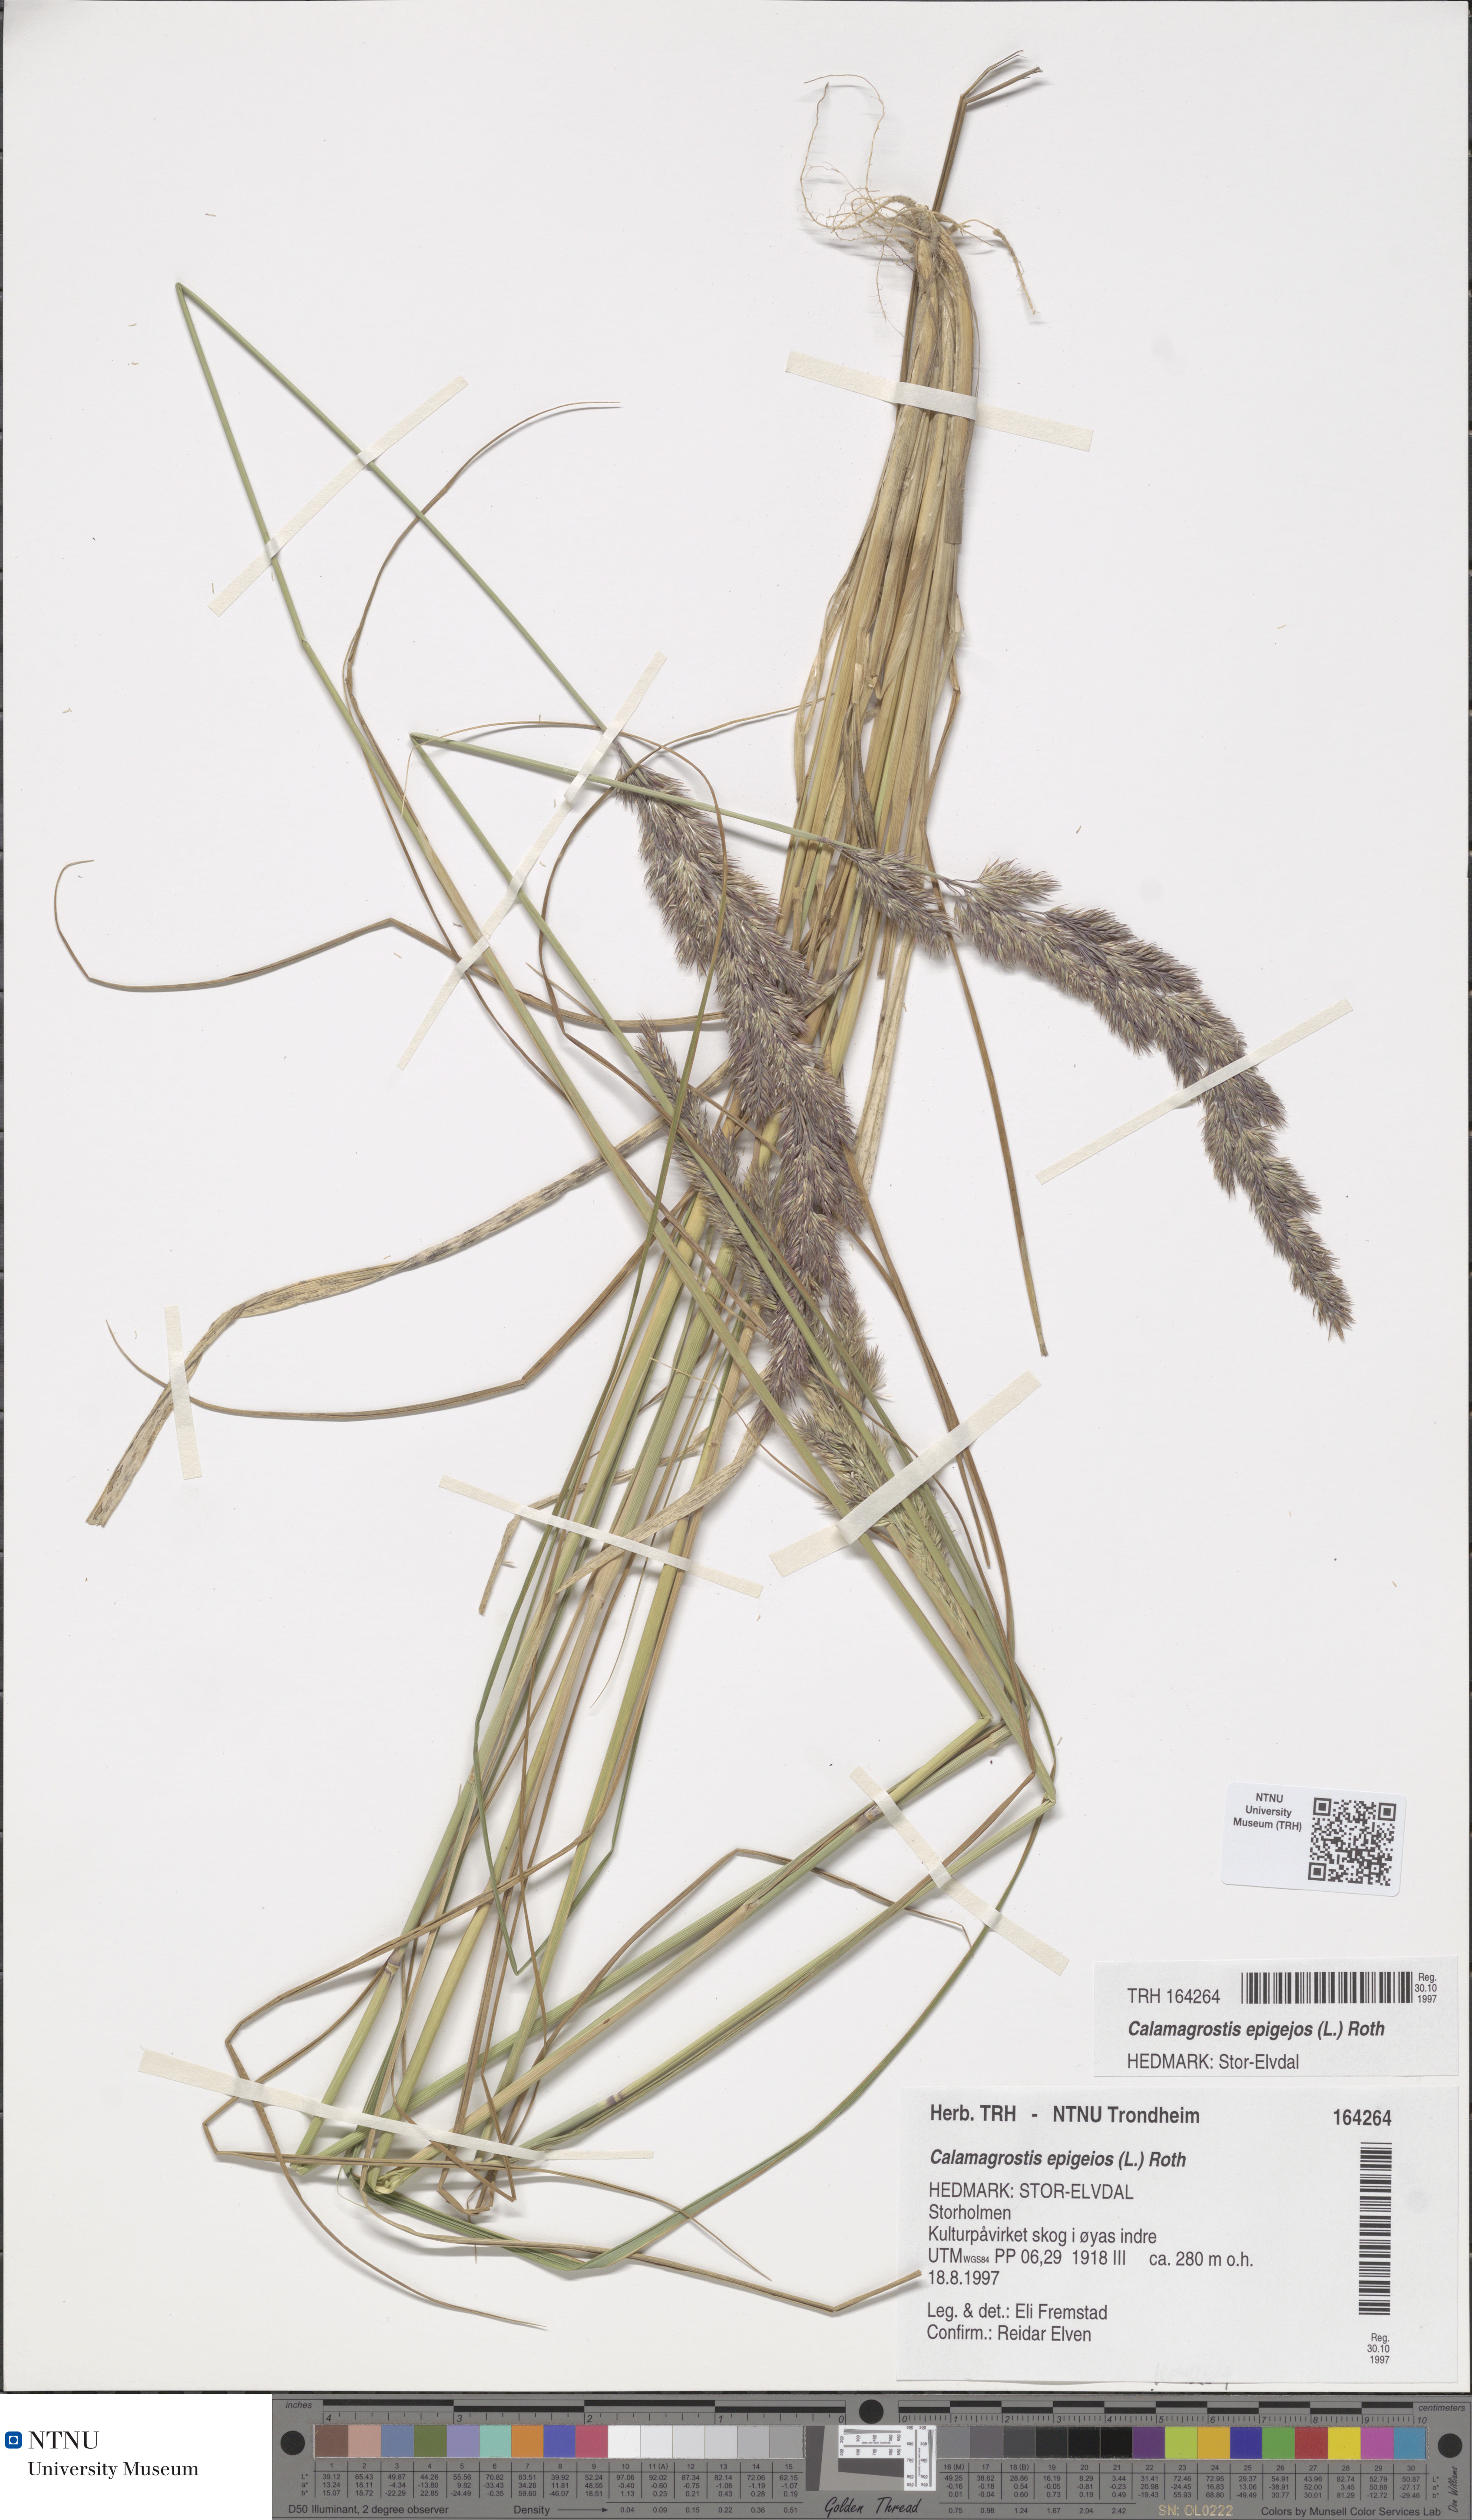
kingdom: Plantae
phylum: Tracheophyta
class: Liliopsida
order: Poales
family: Poaceae
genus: Calamagrostis
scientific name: Calamagrostis epigejos
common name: Wood small-reed
